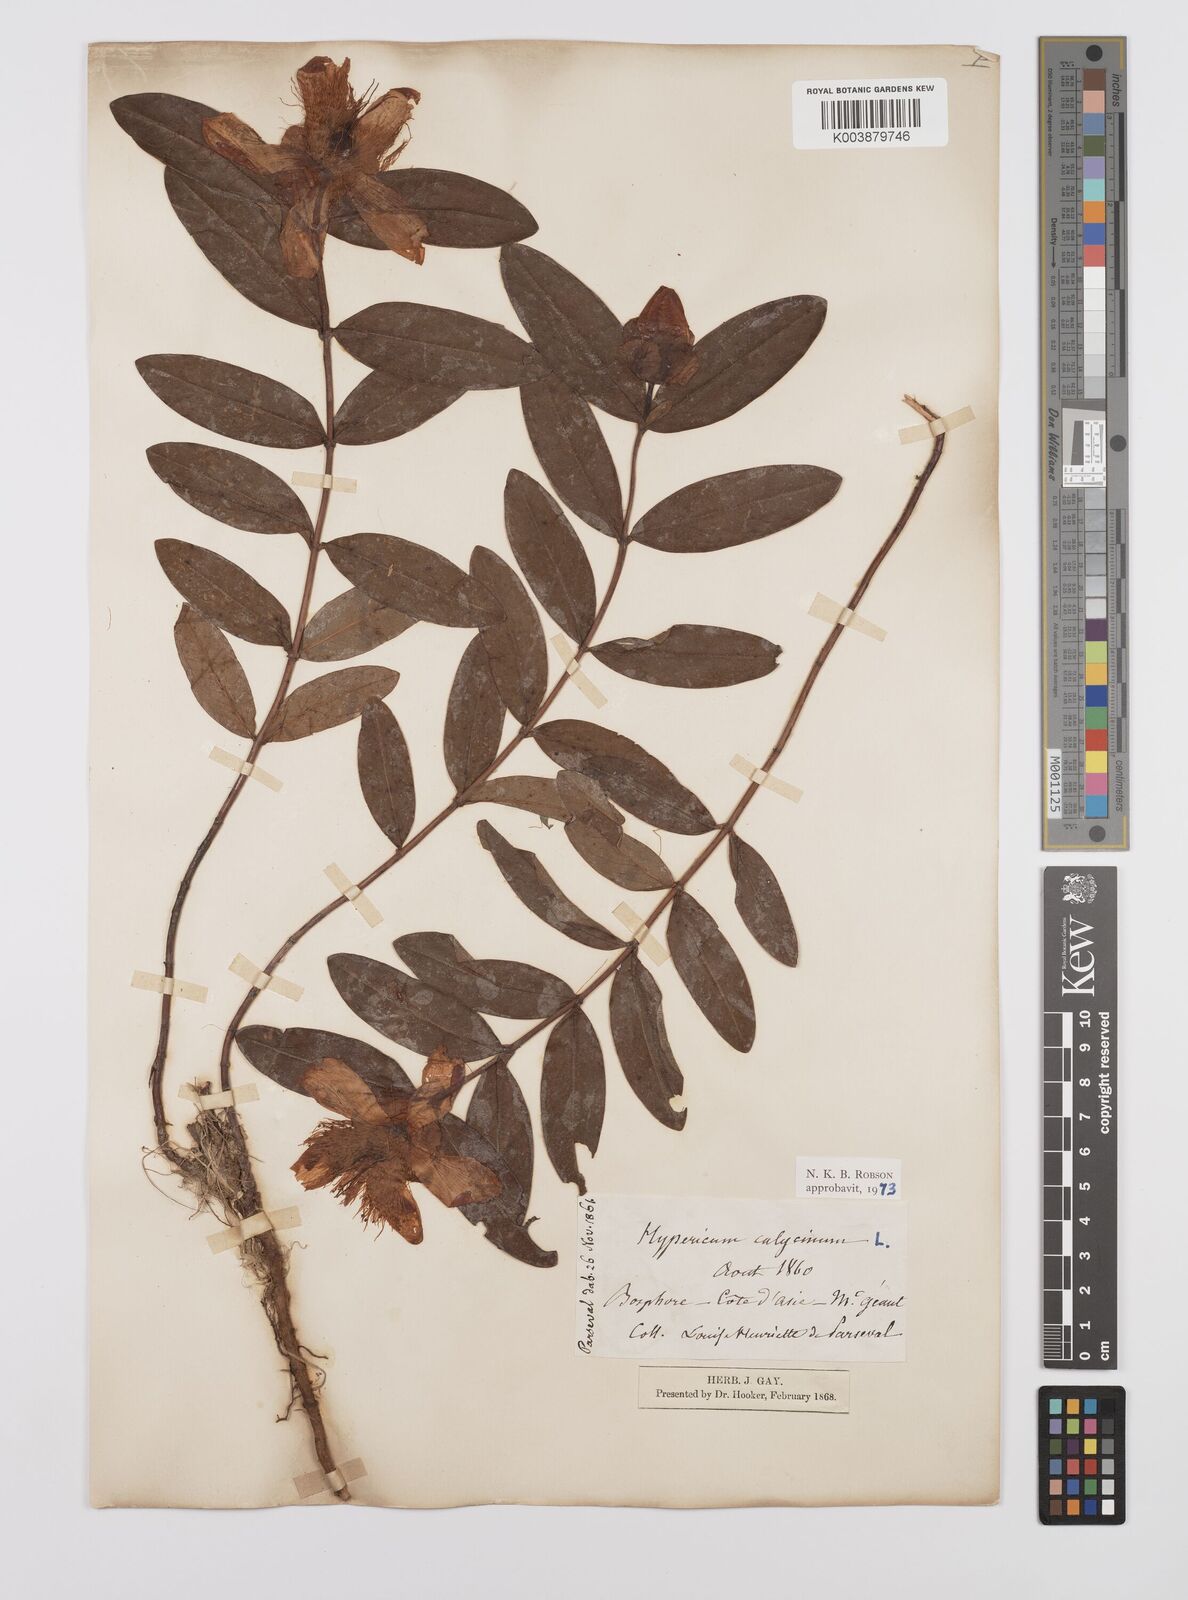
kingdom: Plantae
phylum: Tracheophyta
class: Magnoliopsida
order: Malpighiales
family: Hypericaceae
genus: Hypericum
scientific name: Hypericum calycinum
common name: Rose-of-sharon
